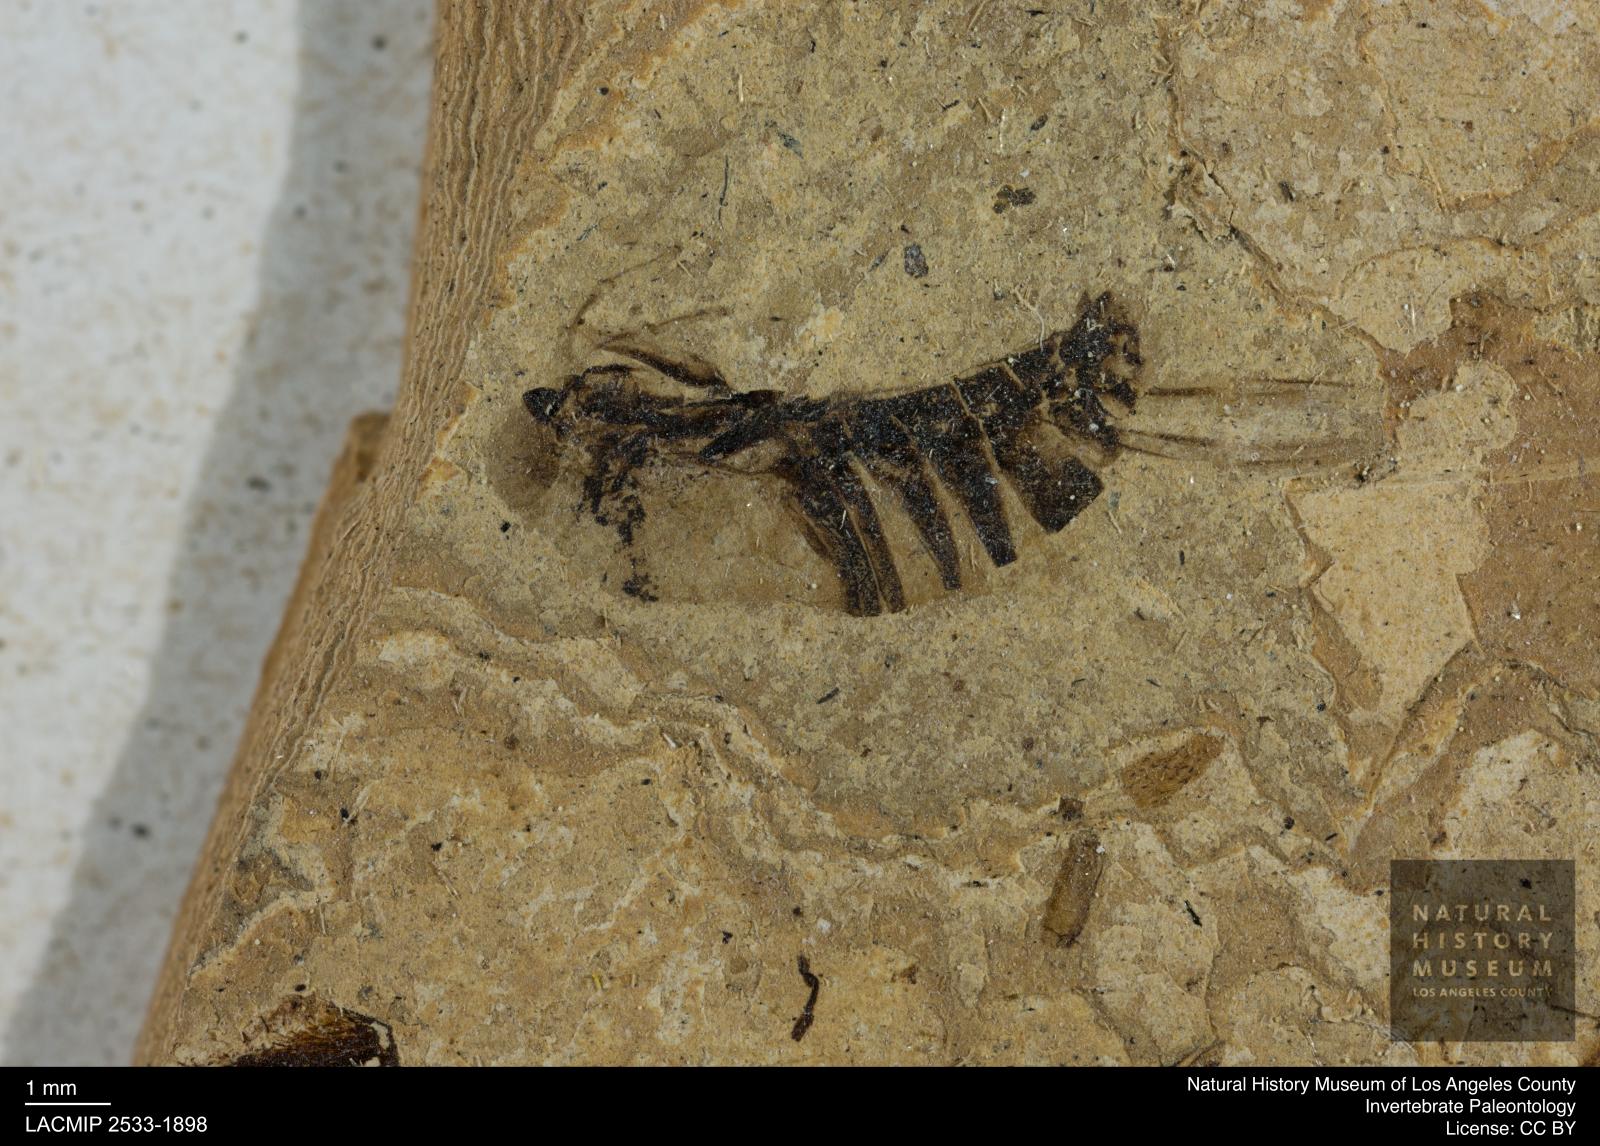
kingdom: Animalia
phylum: Arthropoda
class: Insecta
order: Hemiptera
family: Notonectidae
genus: Anisops
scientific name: Anisops Notonecta deichmuelleri
